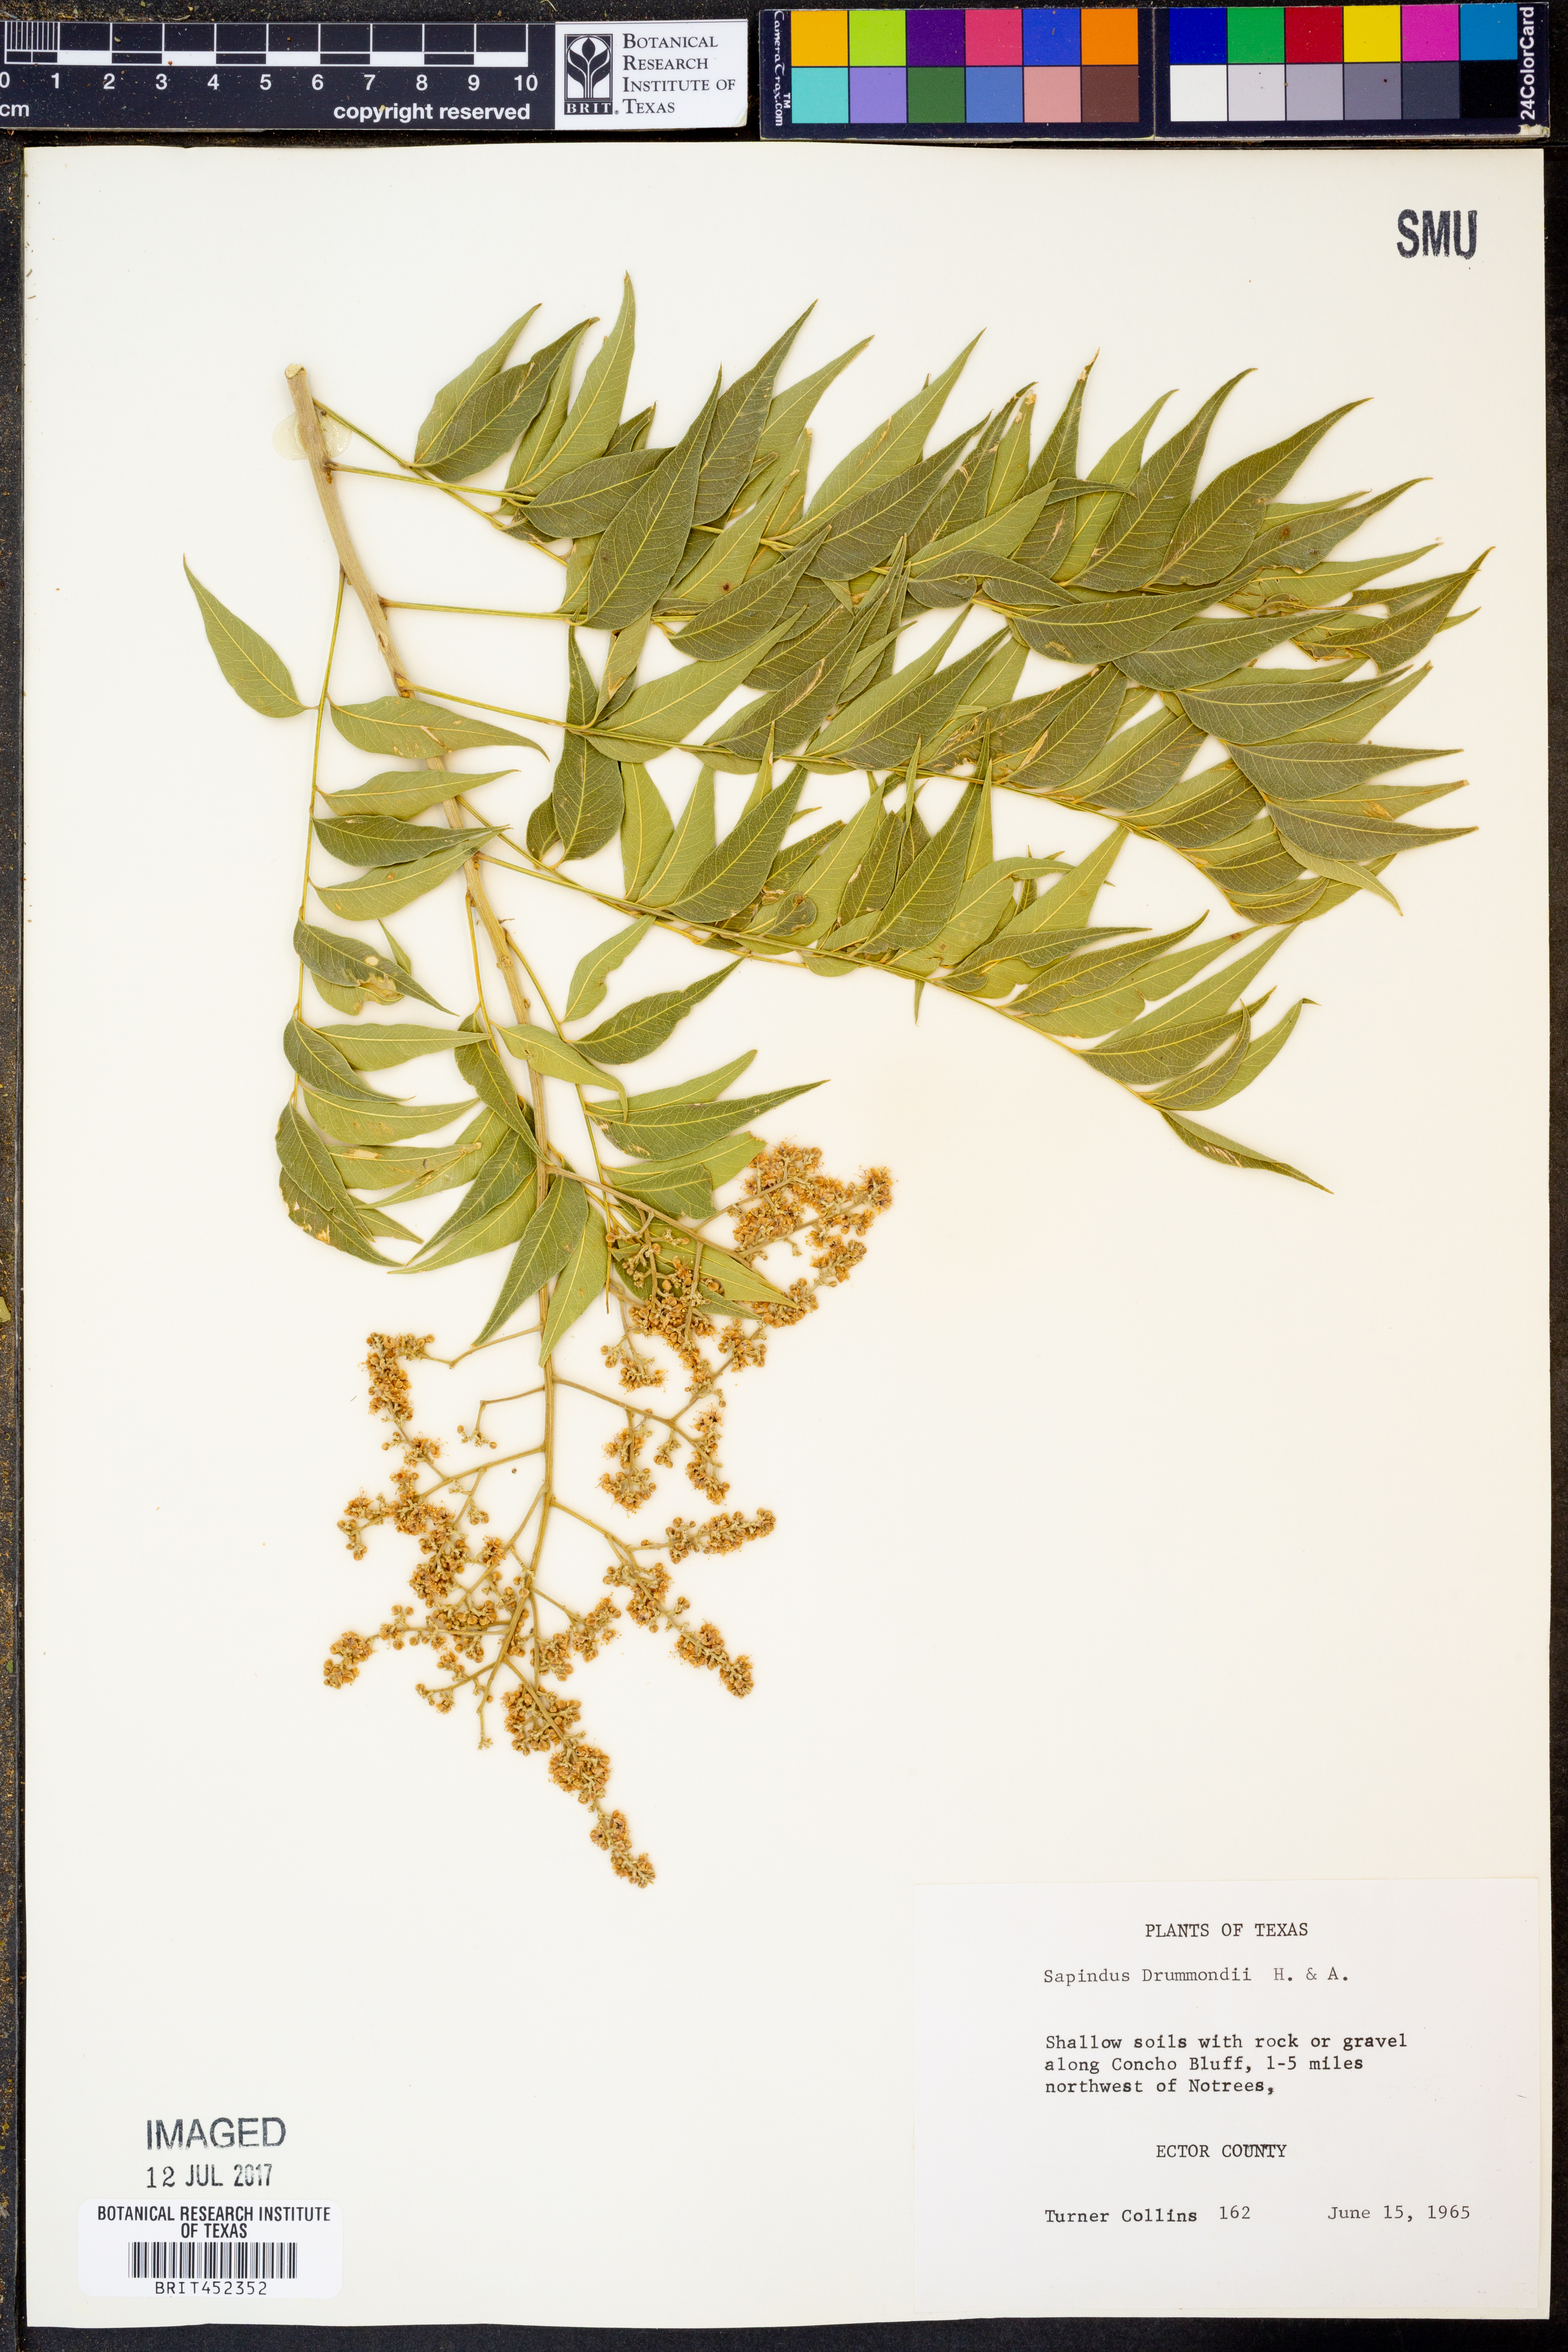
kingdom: Plantae
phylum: Tracheophyta
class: Magnoliopsida
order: Sapindales
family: Sapindaceae
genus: Sapindus
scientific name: Sapindus drummondii
